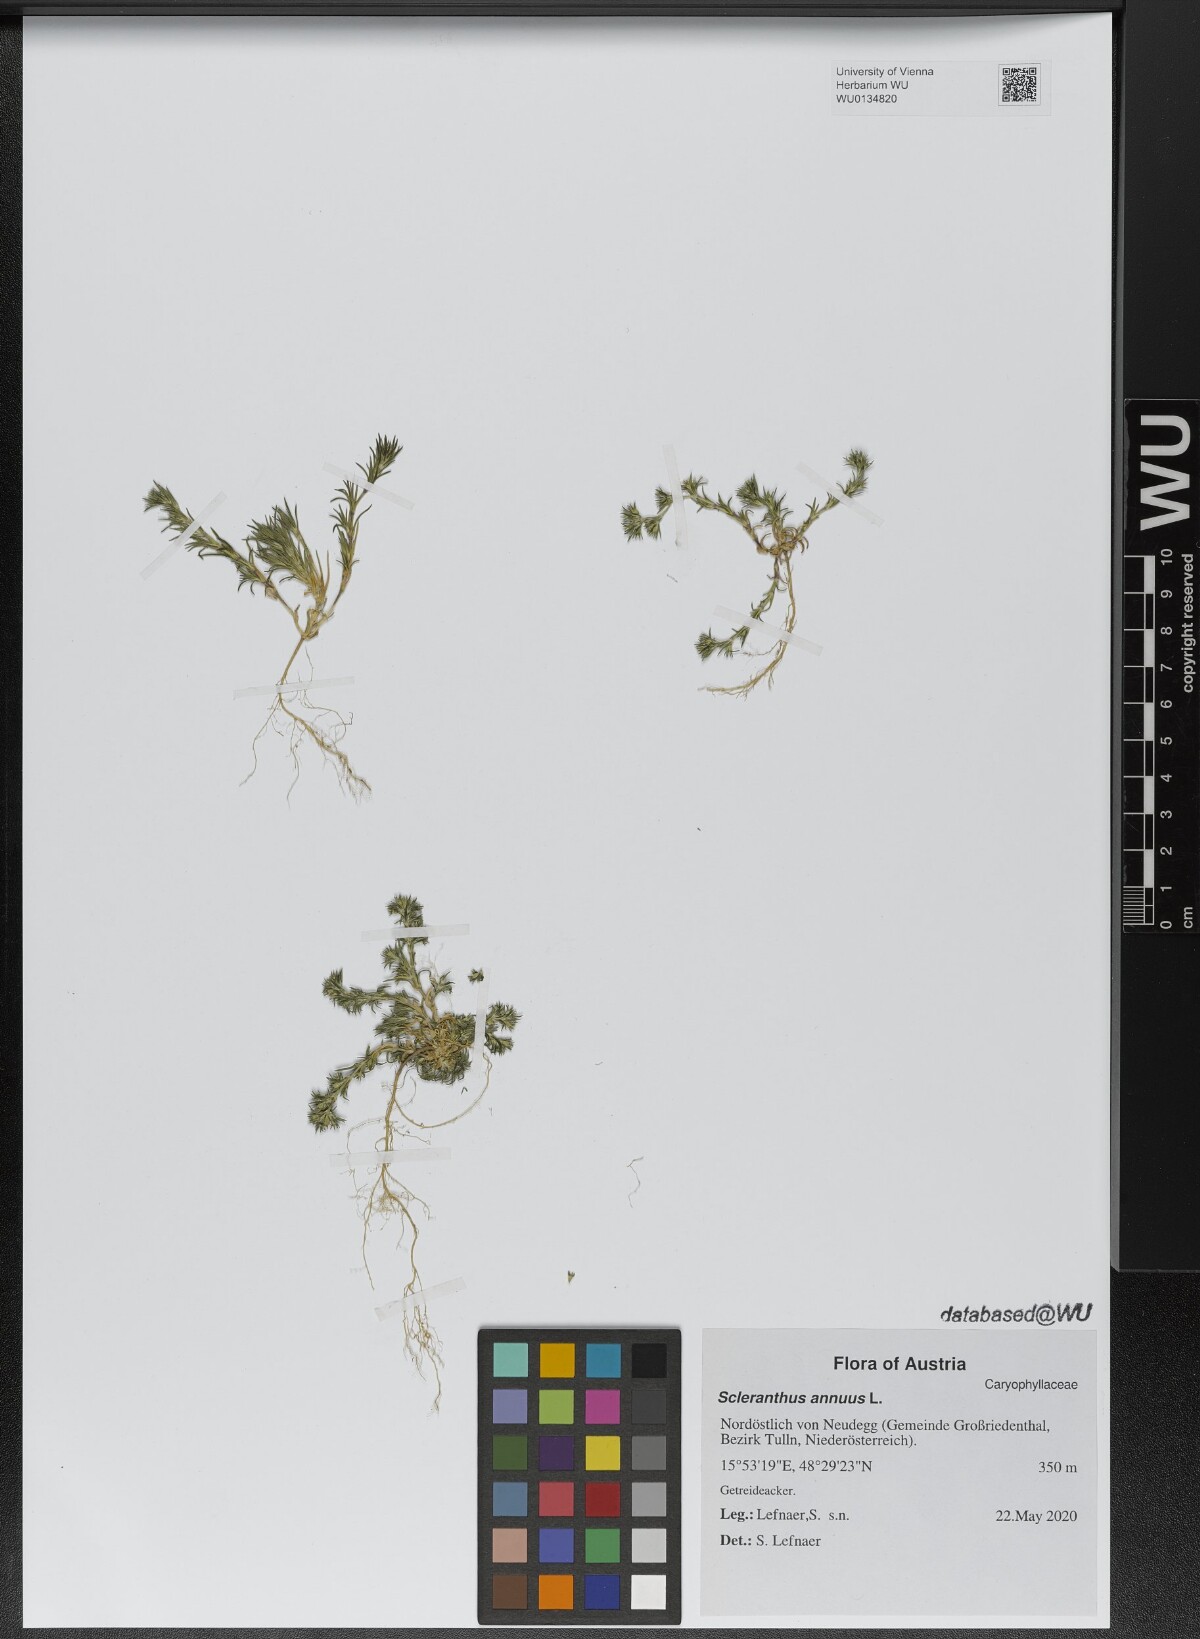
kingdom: Plantae
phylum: Tracheophyta
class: Magnoliopsida
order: Caryophyllales
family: Caryophyllaceae
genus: Scleranthus
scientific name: Scleranthus annuus
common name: Annual knawel
